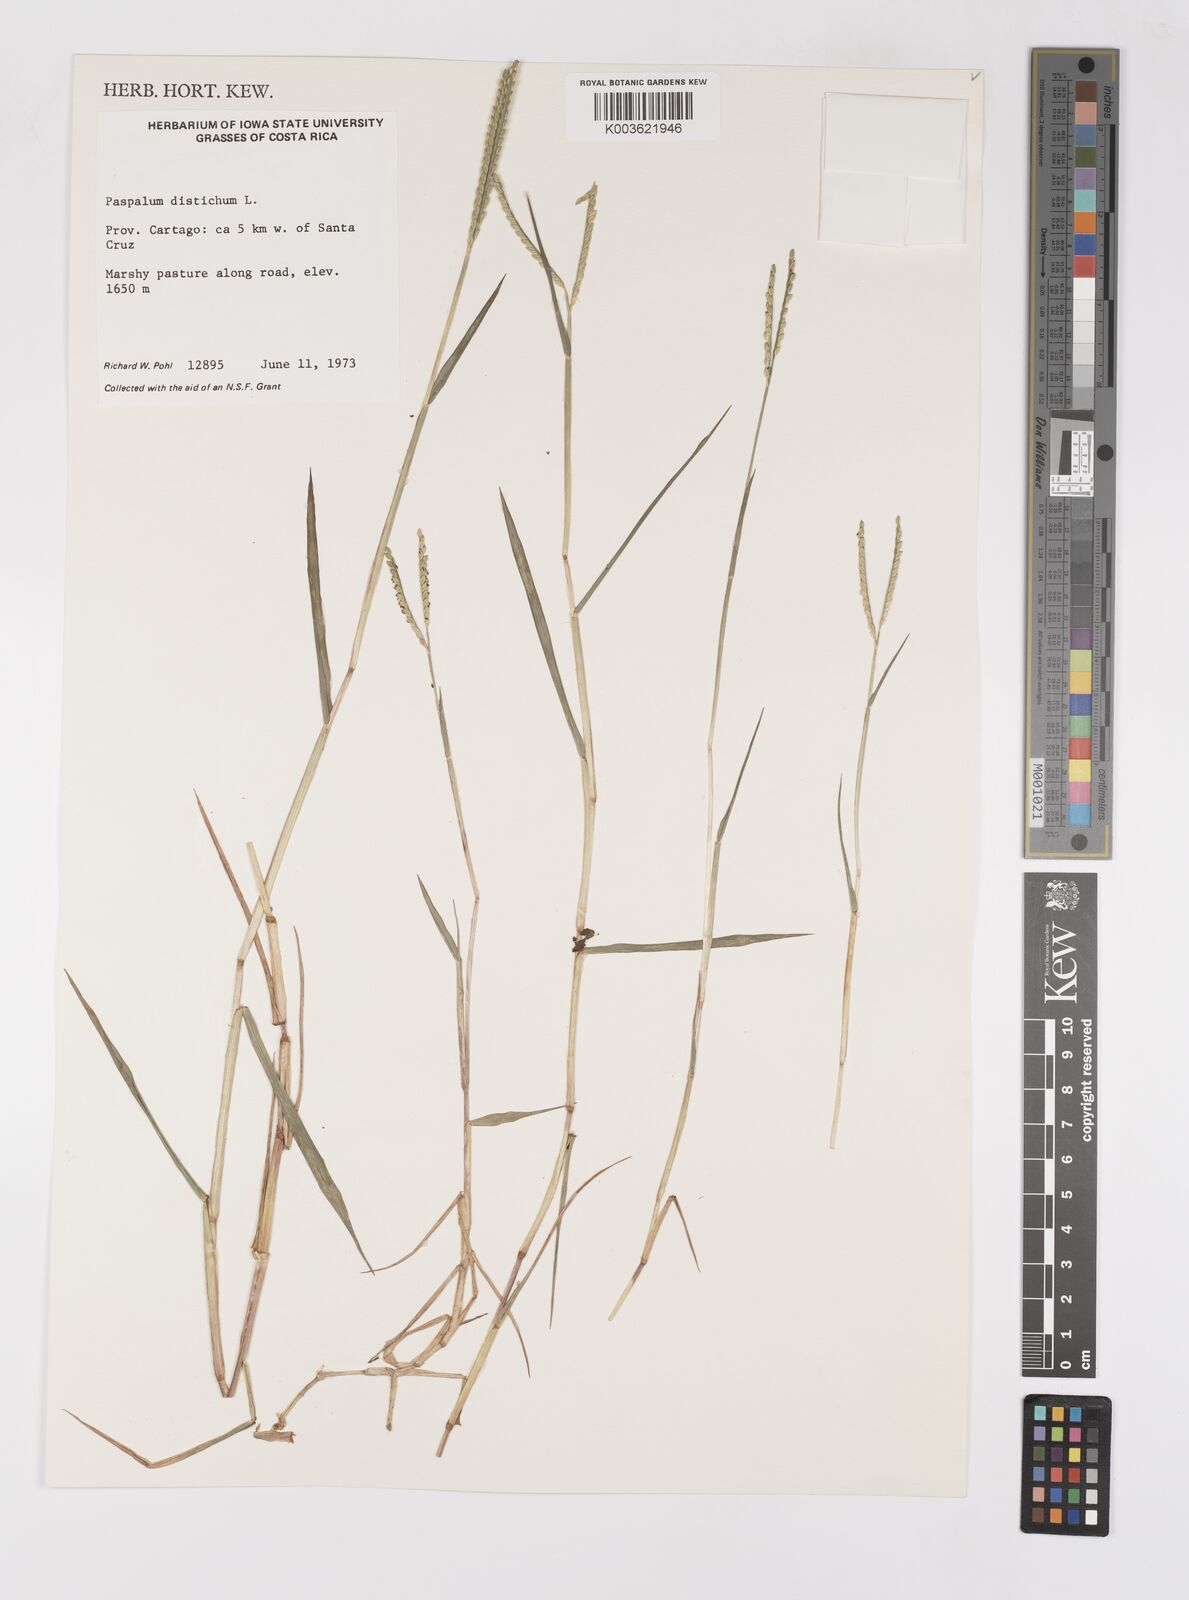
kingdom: Plantae
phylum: Tracheophyta
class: Liliopsida
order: Poales
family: Poaceae
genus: Paspalum
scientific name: Paspalum distichum
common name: Knotgrass
